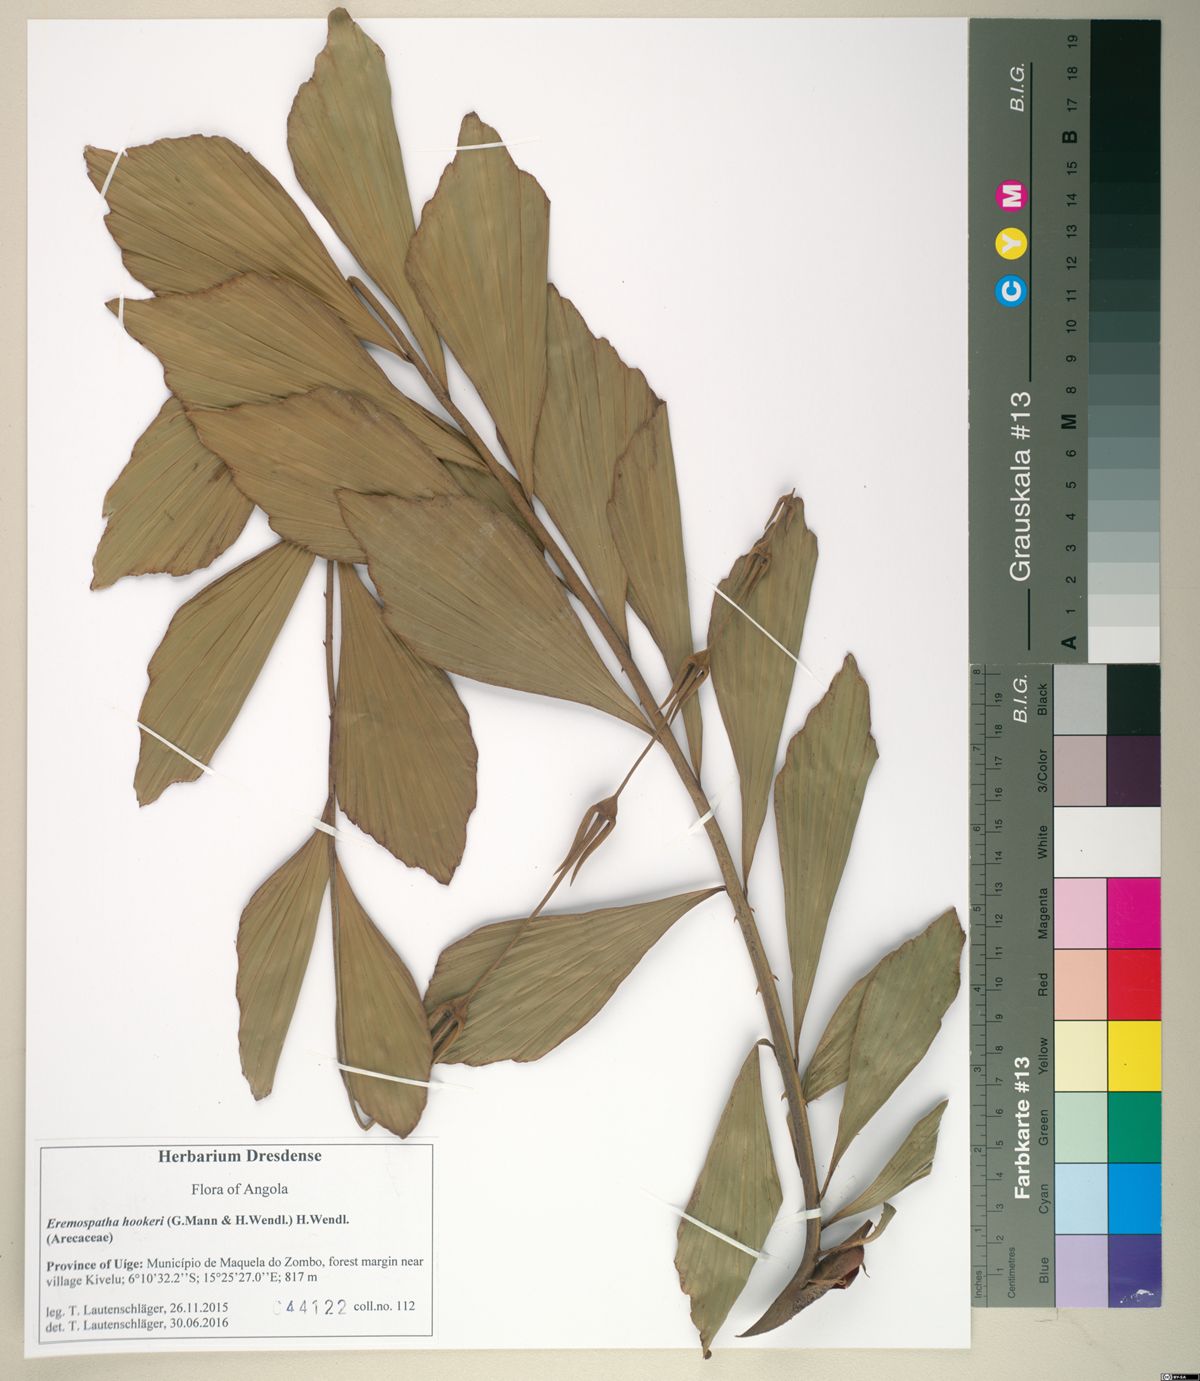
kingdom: Plantae
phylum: Tracheophyta
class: Liliopsida
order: Arecales
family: Arecaceae
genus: Eremospatha
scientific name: Eremospatha hookeri
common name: Rattan
